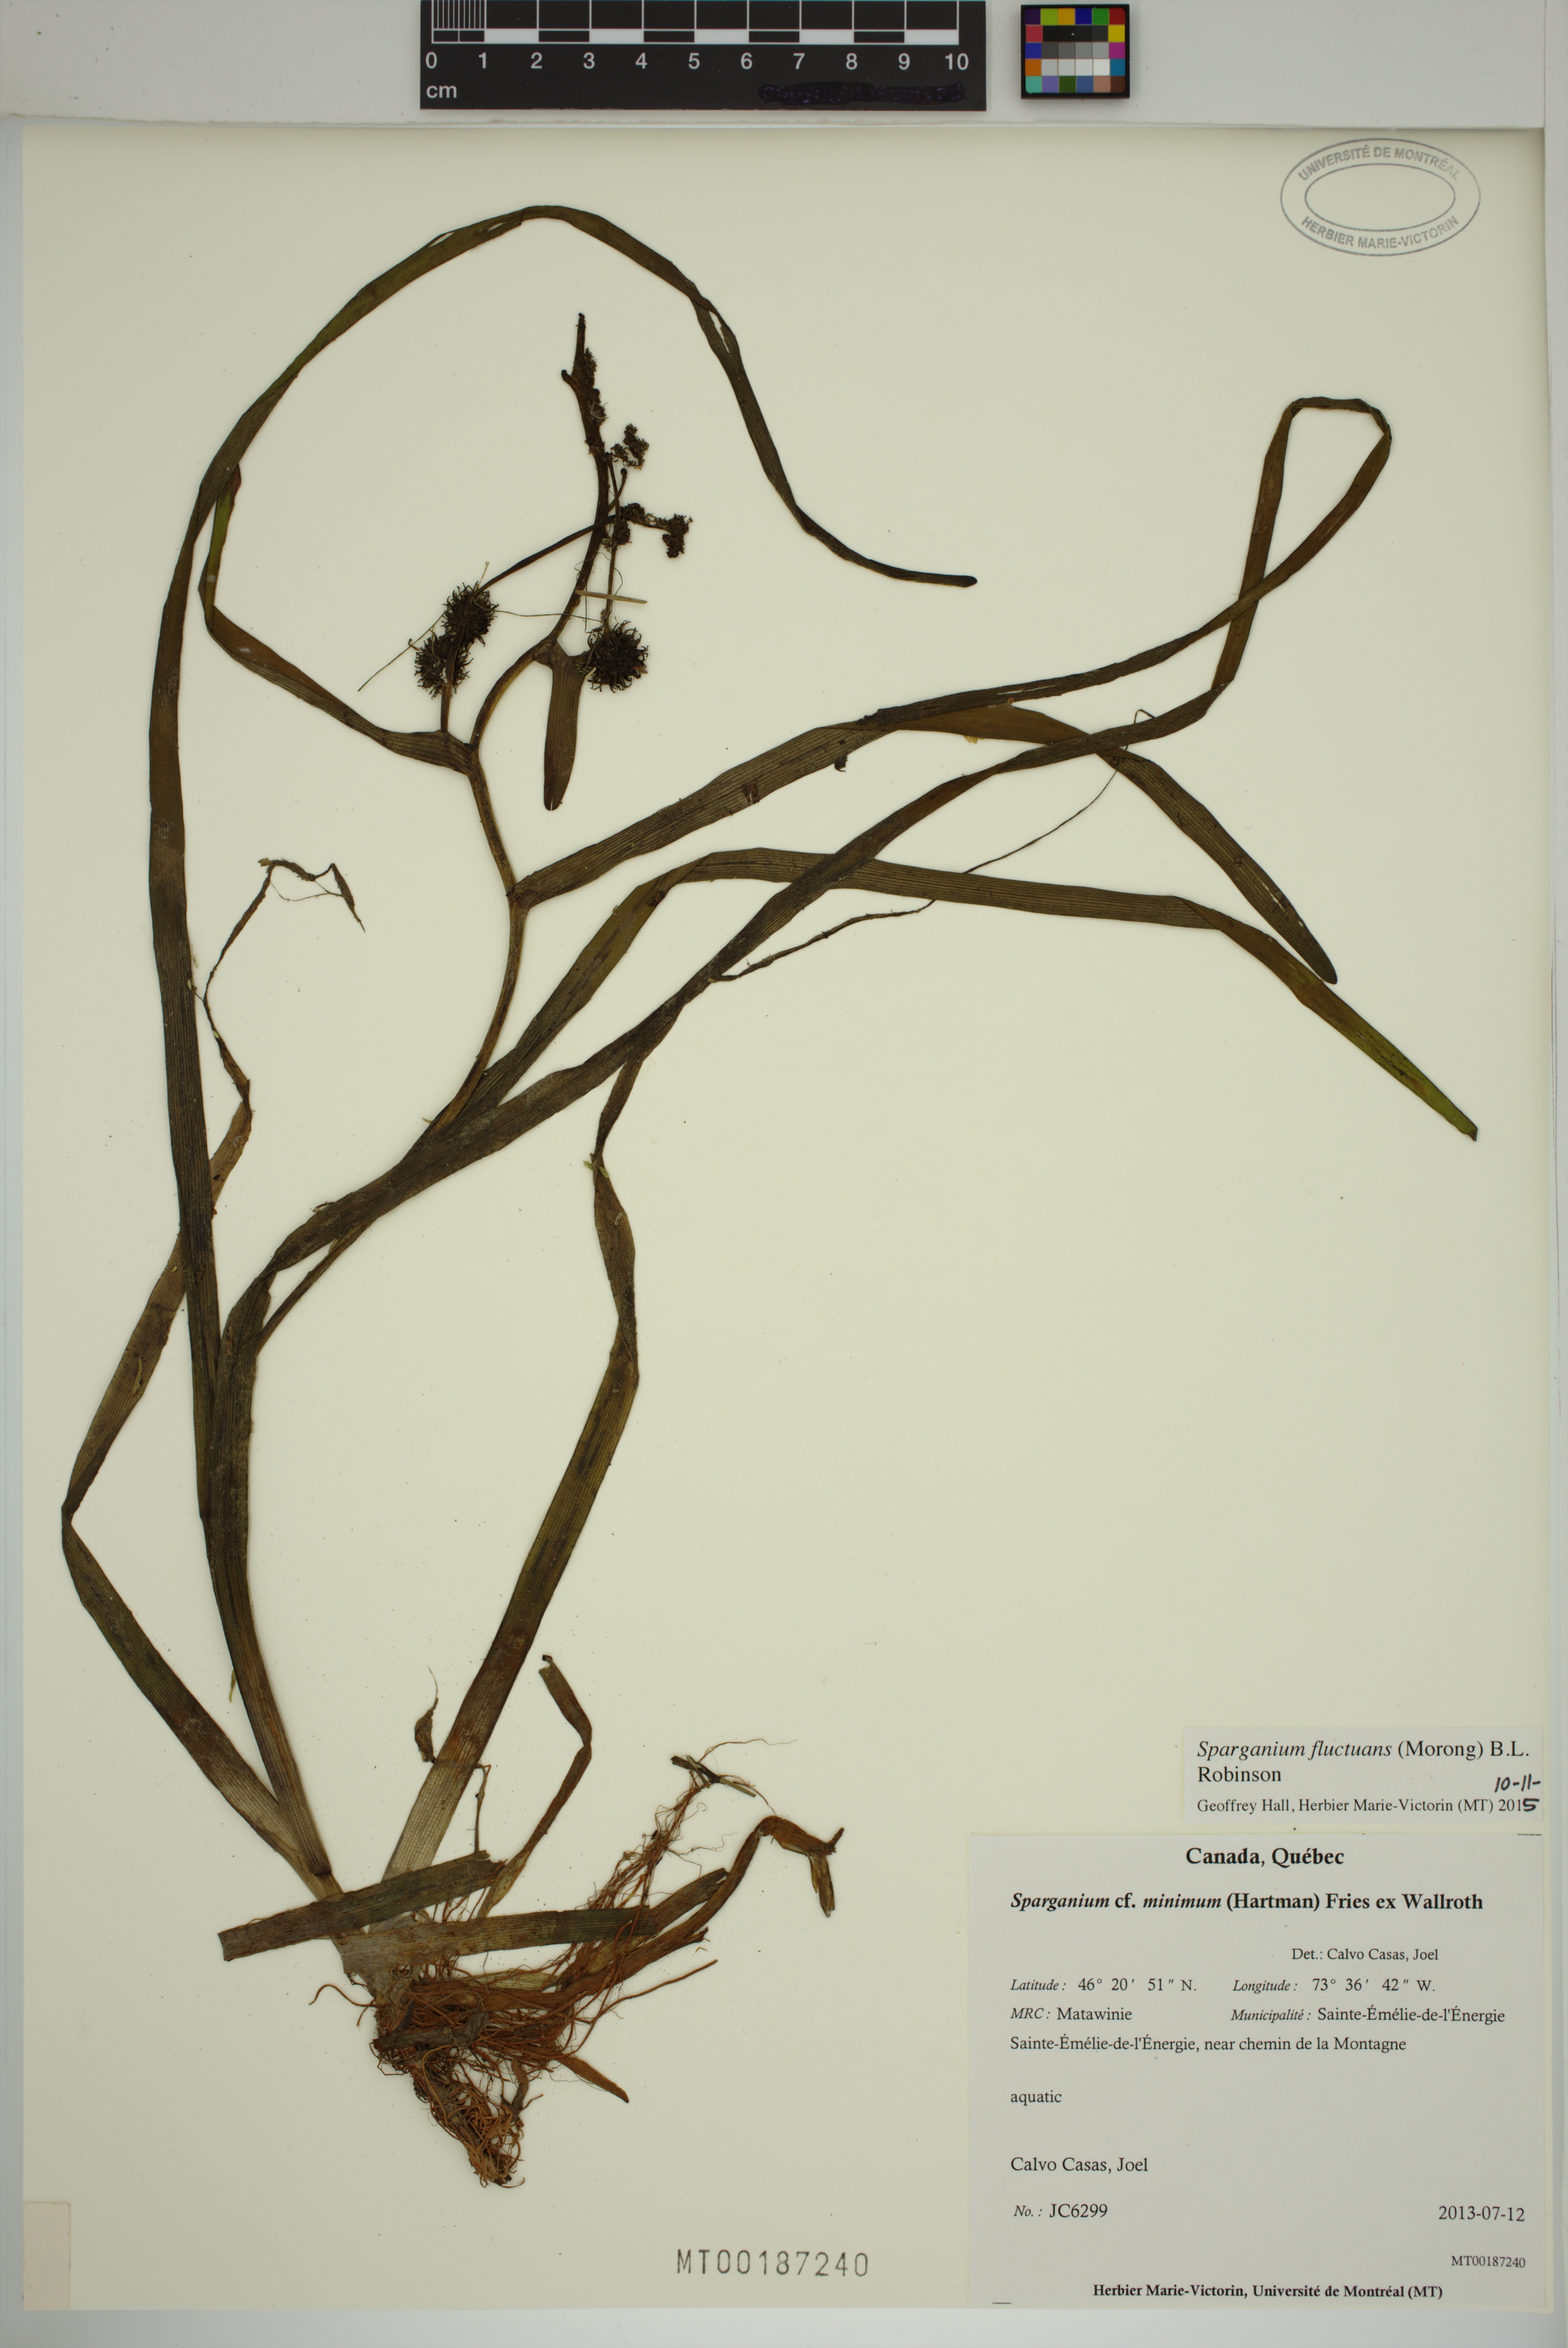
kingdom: Plantae
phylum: Tracheophyta
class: Liliopsida
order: Poales
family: Typhaceae
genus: Sparganium
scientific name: Sparganium fluctuans
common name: Floating burreed
